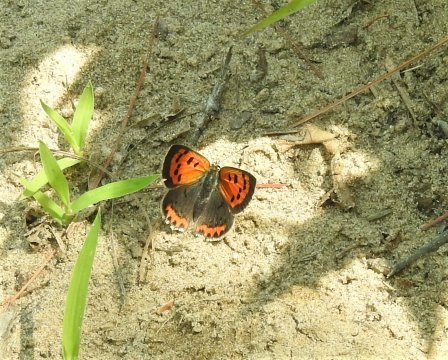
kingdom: Animalia
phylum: Arthropoda
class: Insecta
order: Lepidoptera
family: Lycaenidae
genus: Lycaena
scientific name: Lycaena phlaeas
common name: American Copper
